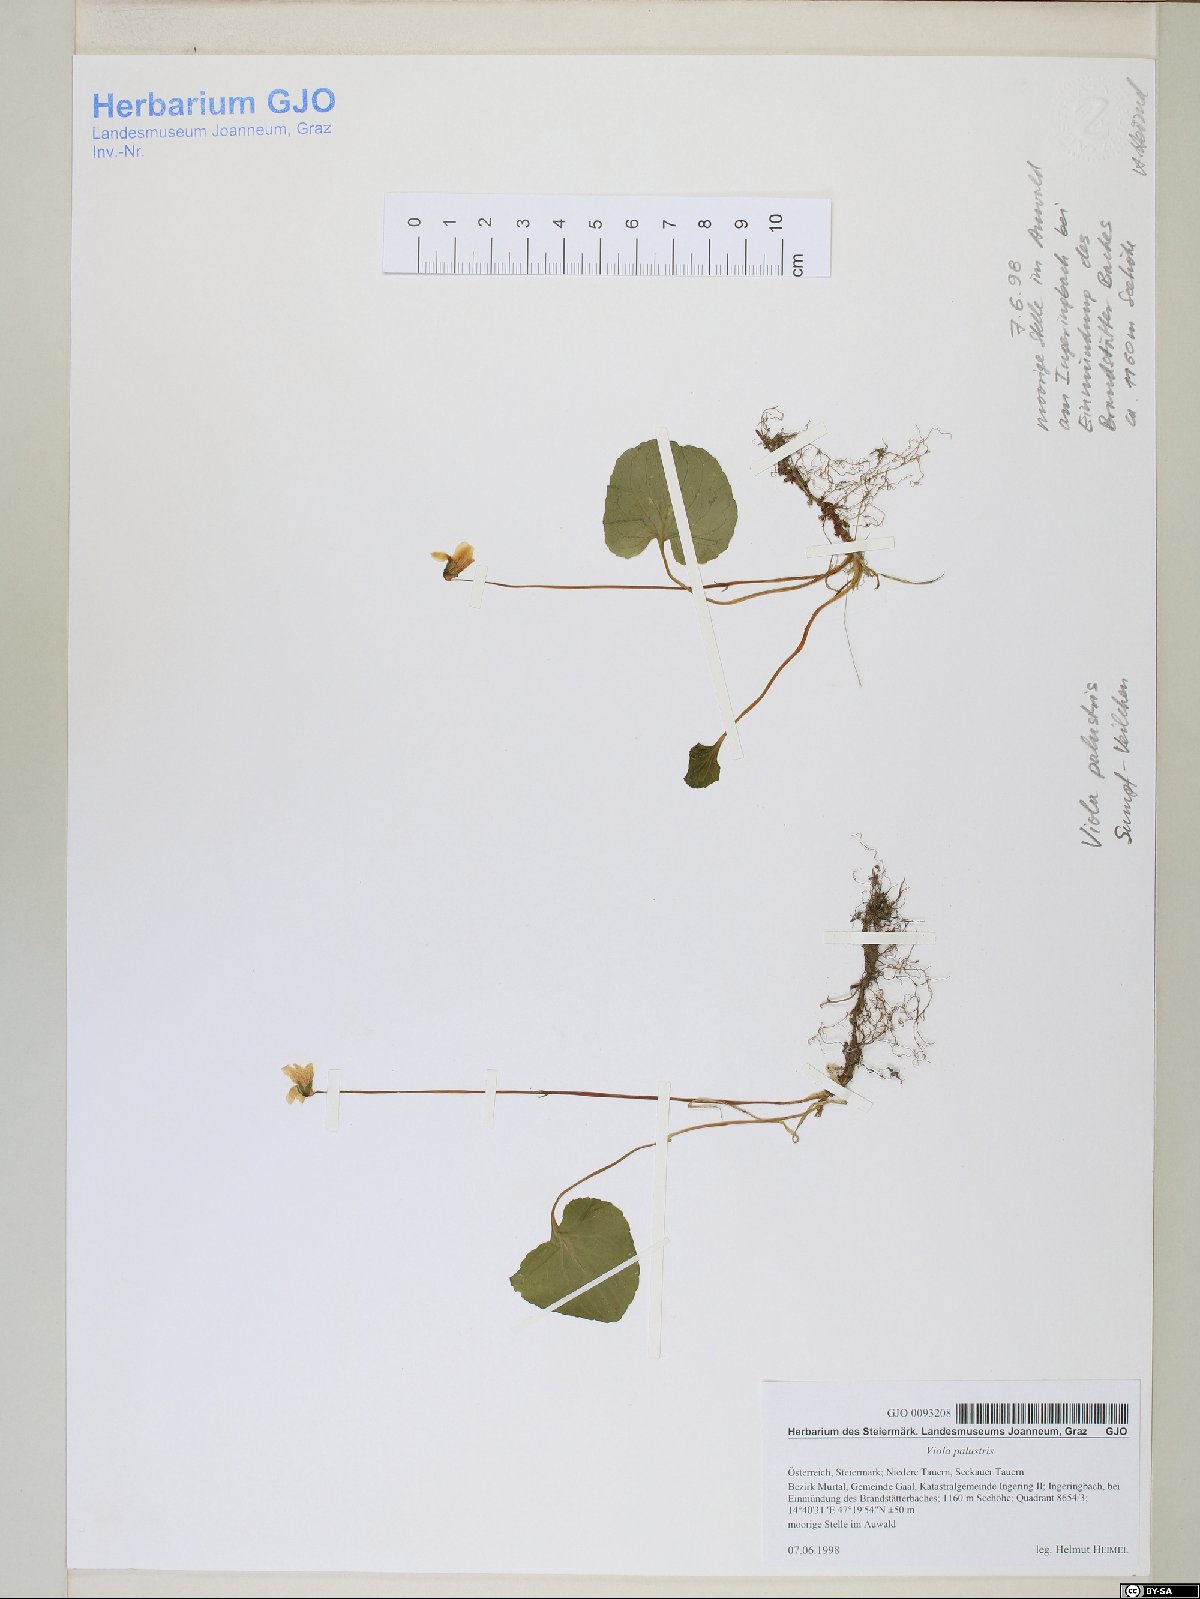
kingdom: Plantae
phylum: Tracheophyta
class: Magnoliopsida
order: Malpighiales
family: Violaceae
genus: Viola
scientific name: Viola palustris
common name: Marsh violet
